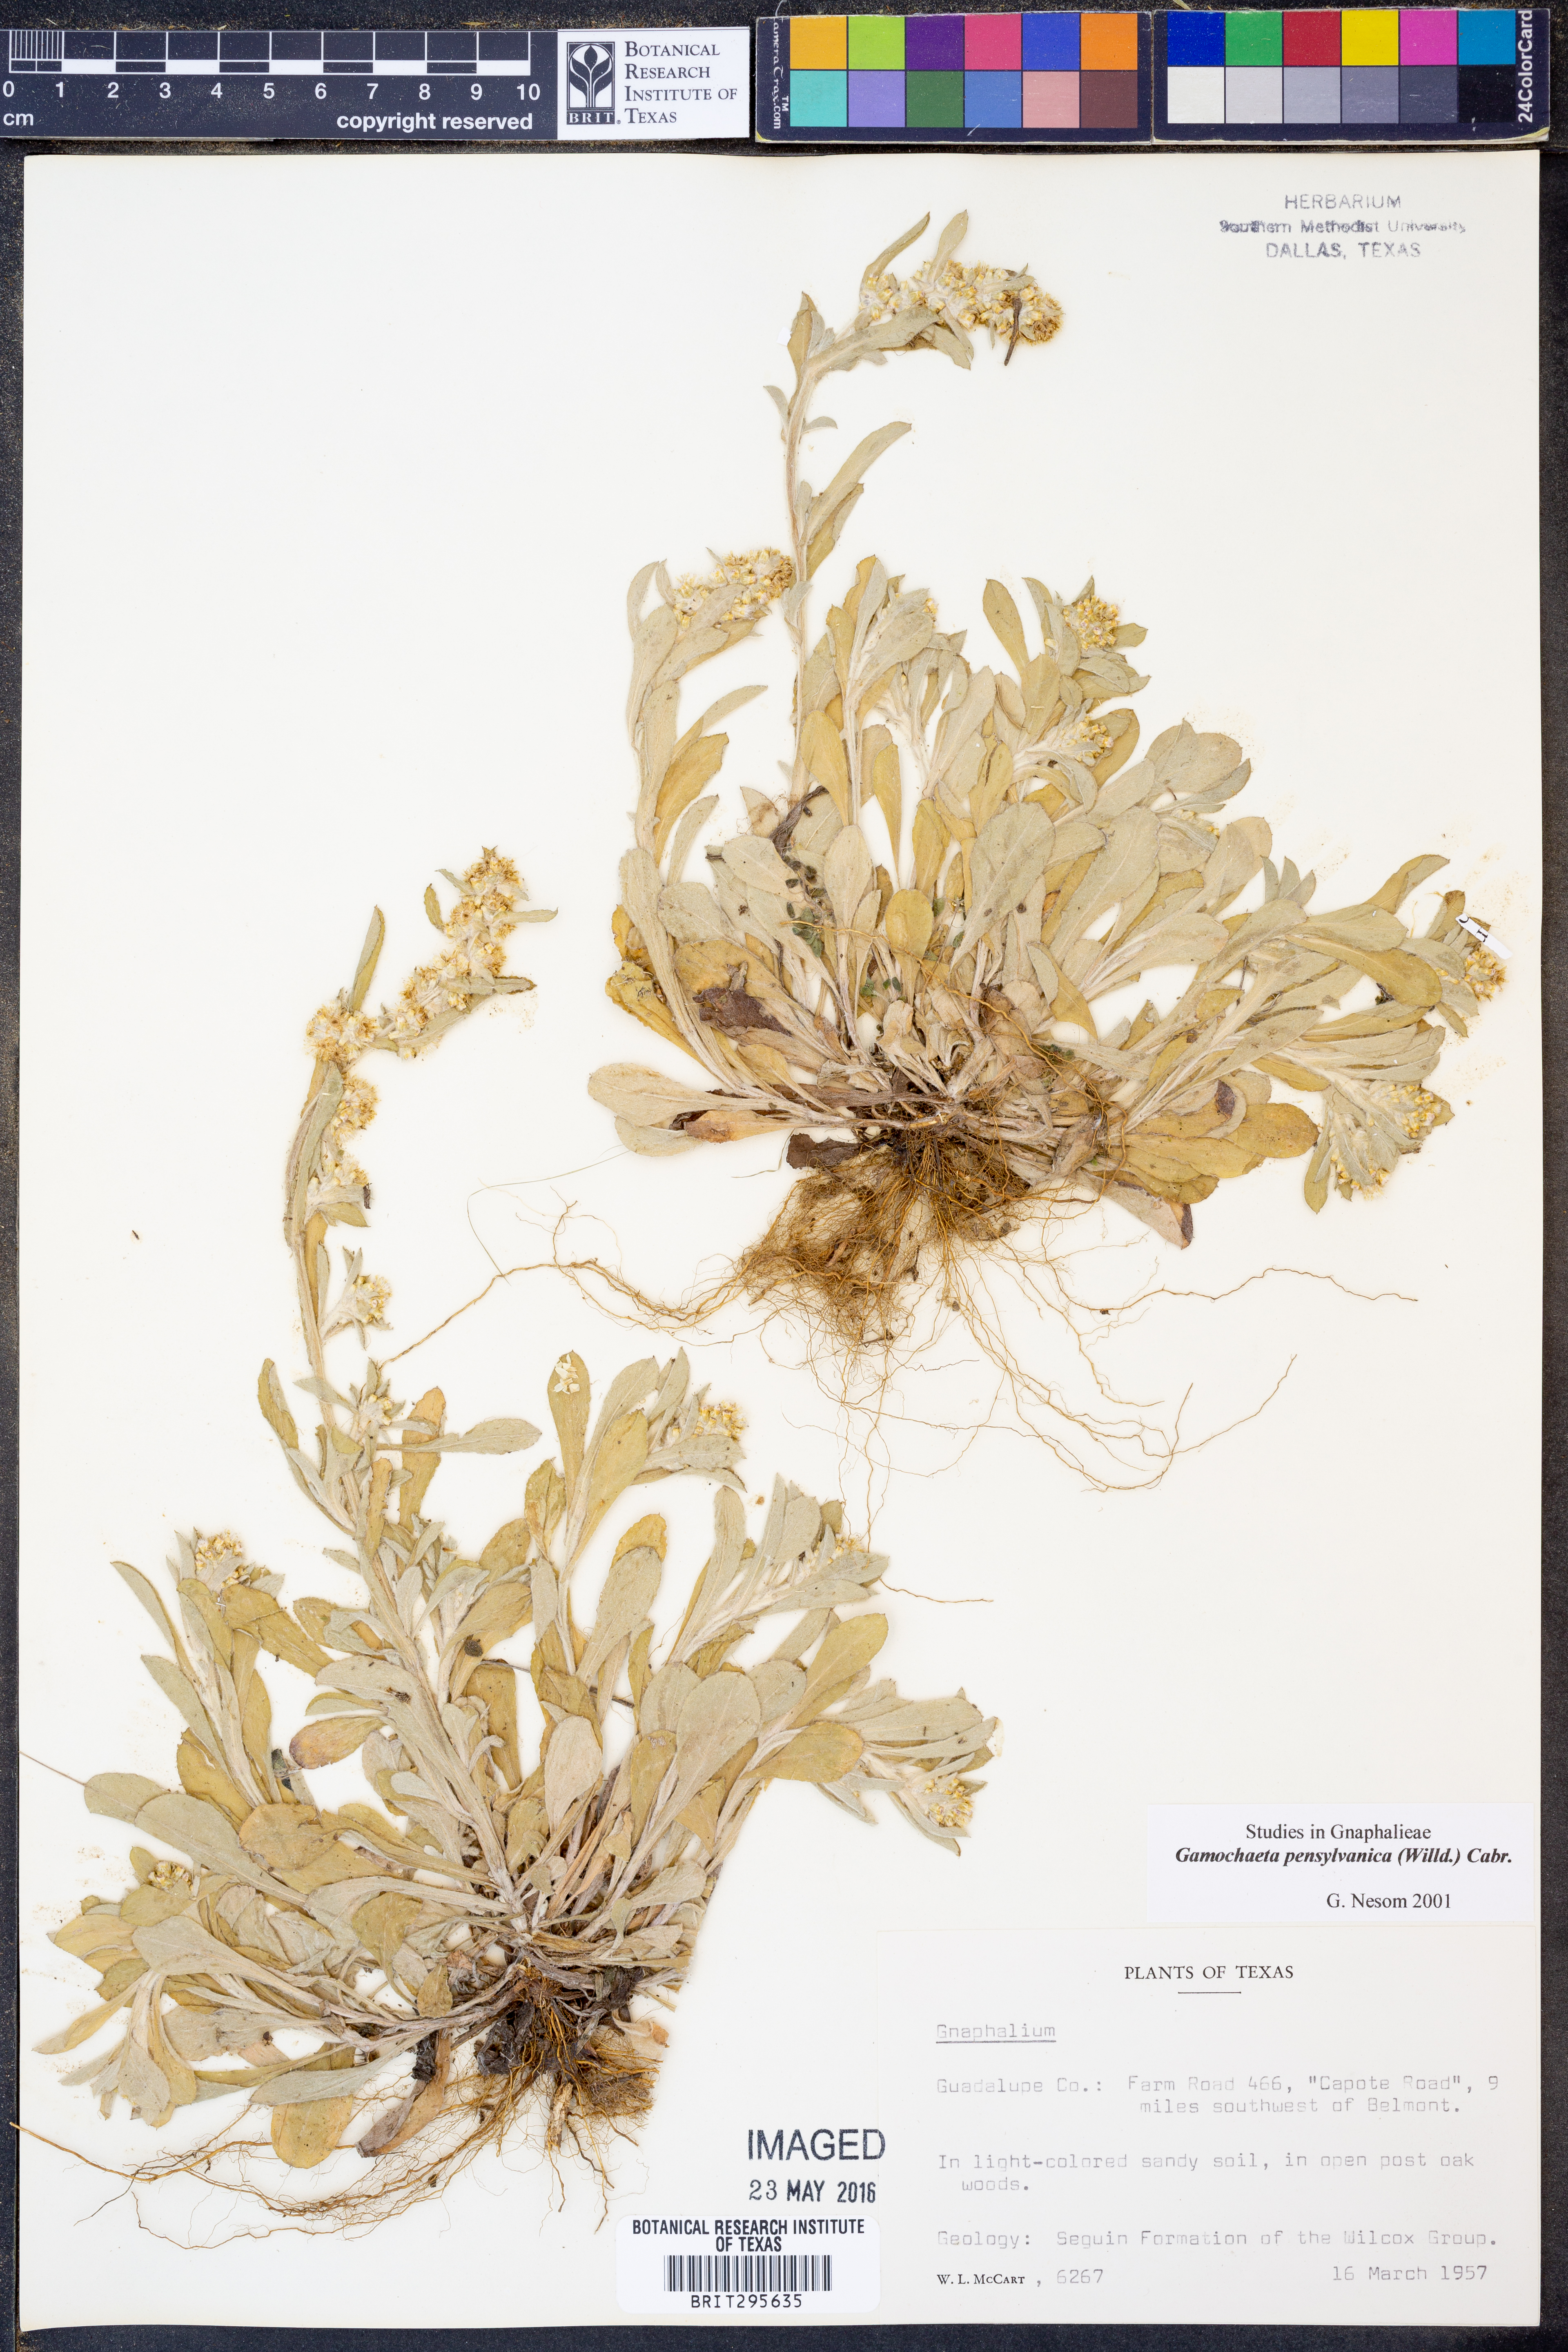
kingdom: Plantae
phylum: Tracheophyta
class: Magnoliopsida
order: Asterales
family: Asteraceae
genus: Gamochaeta
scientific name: Gamochaeta pensylvanica
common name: Pennsylvania everlasting
